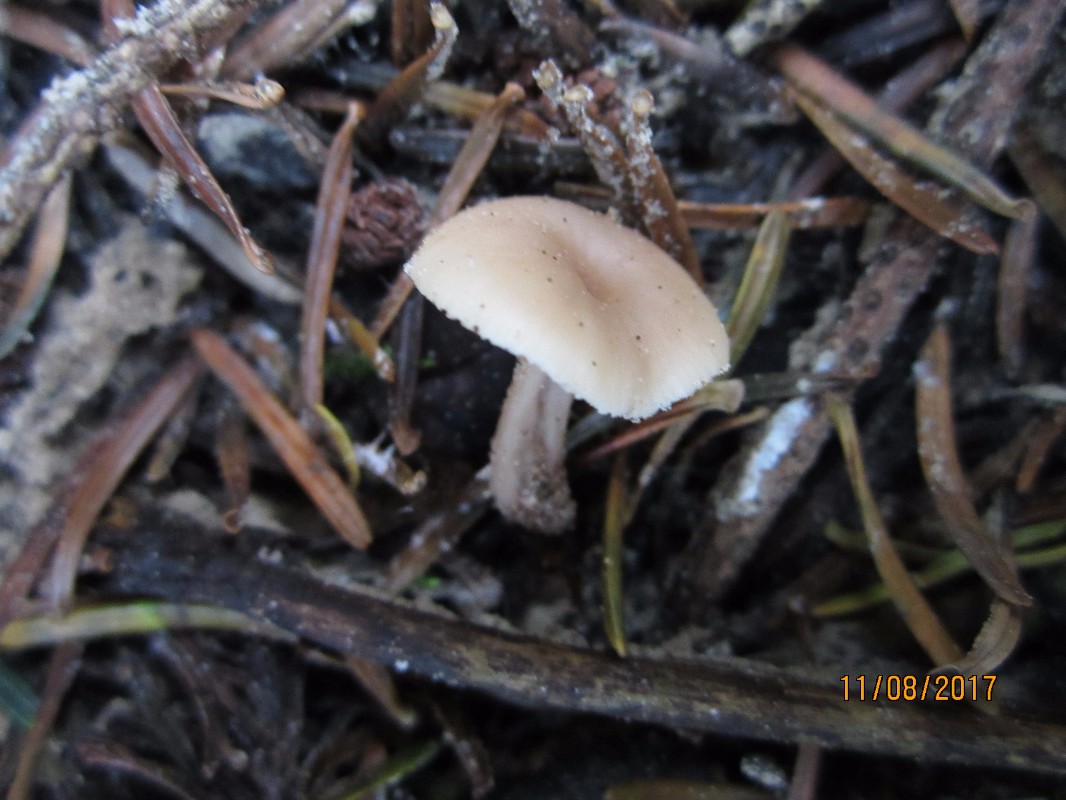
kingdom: Fungi
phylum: Basidiomycota
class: Agaricomycetes
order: Russulales
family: Auriscalpiaceae
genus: Lentinellus
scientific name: Lentinellus flabelliformis
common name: navle-savbladhat
